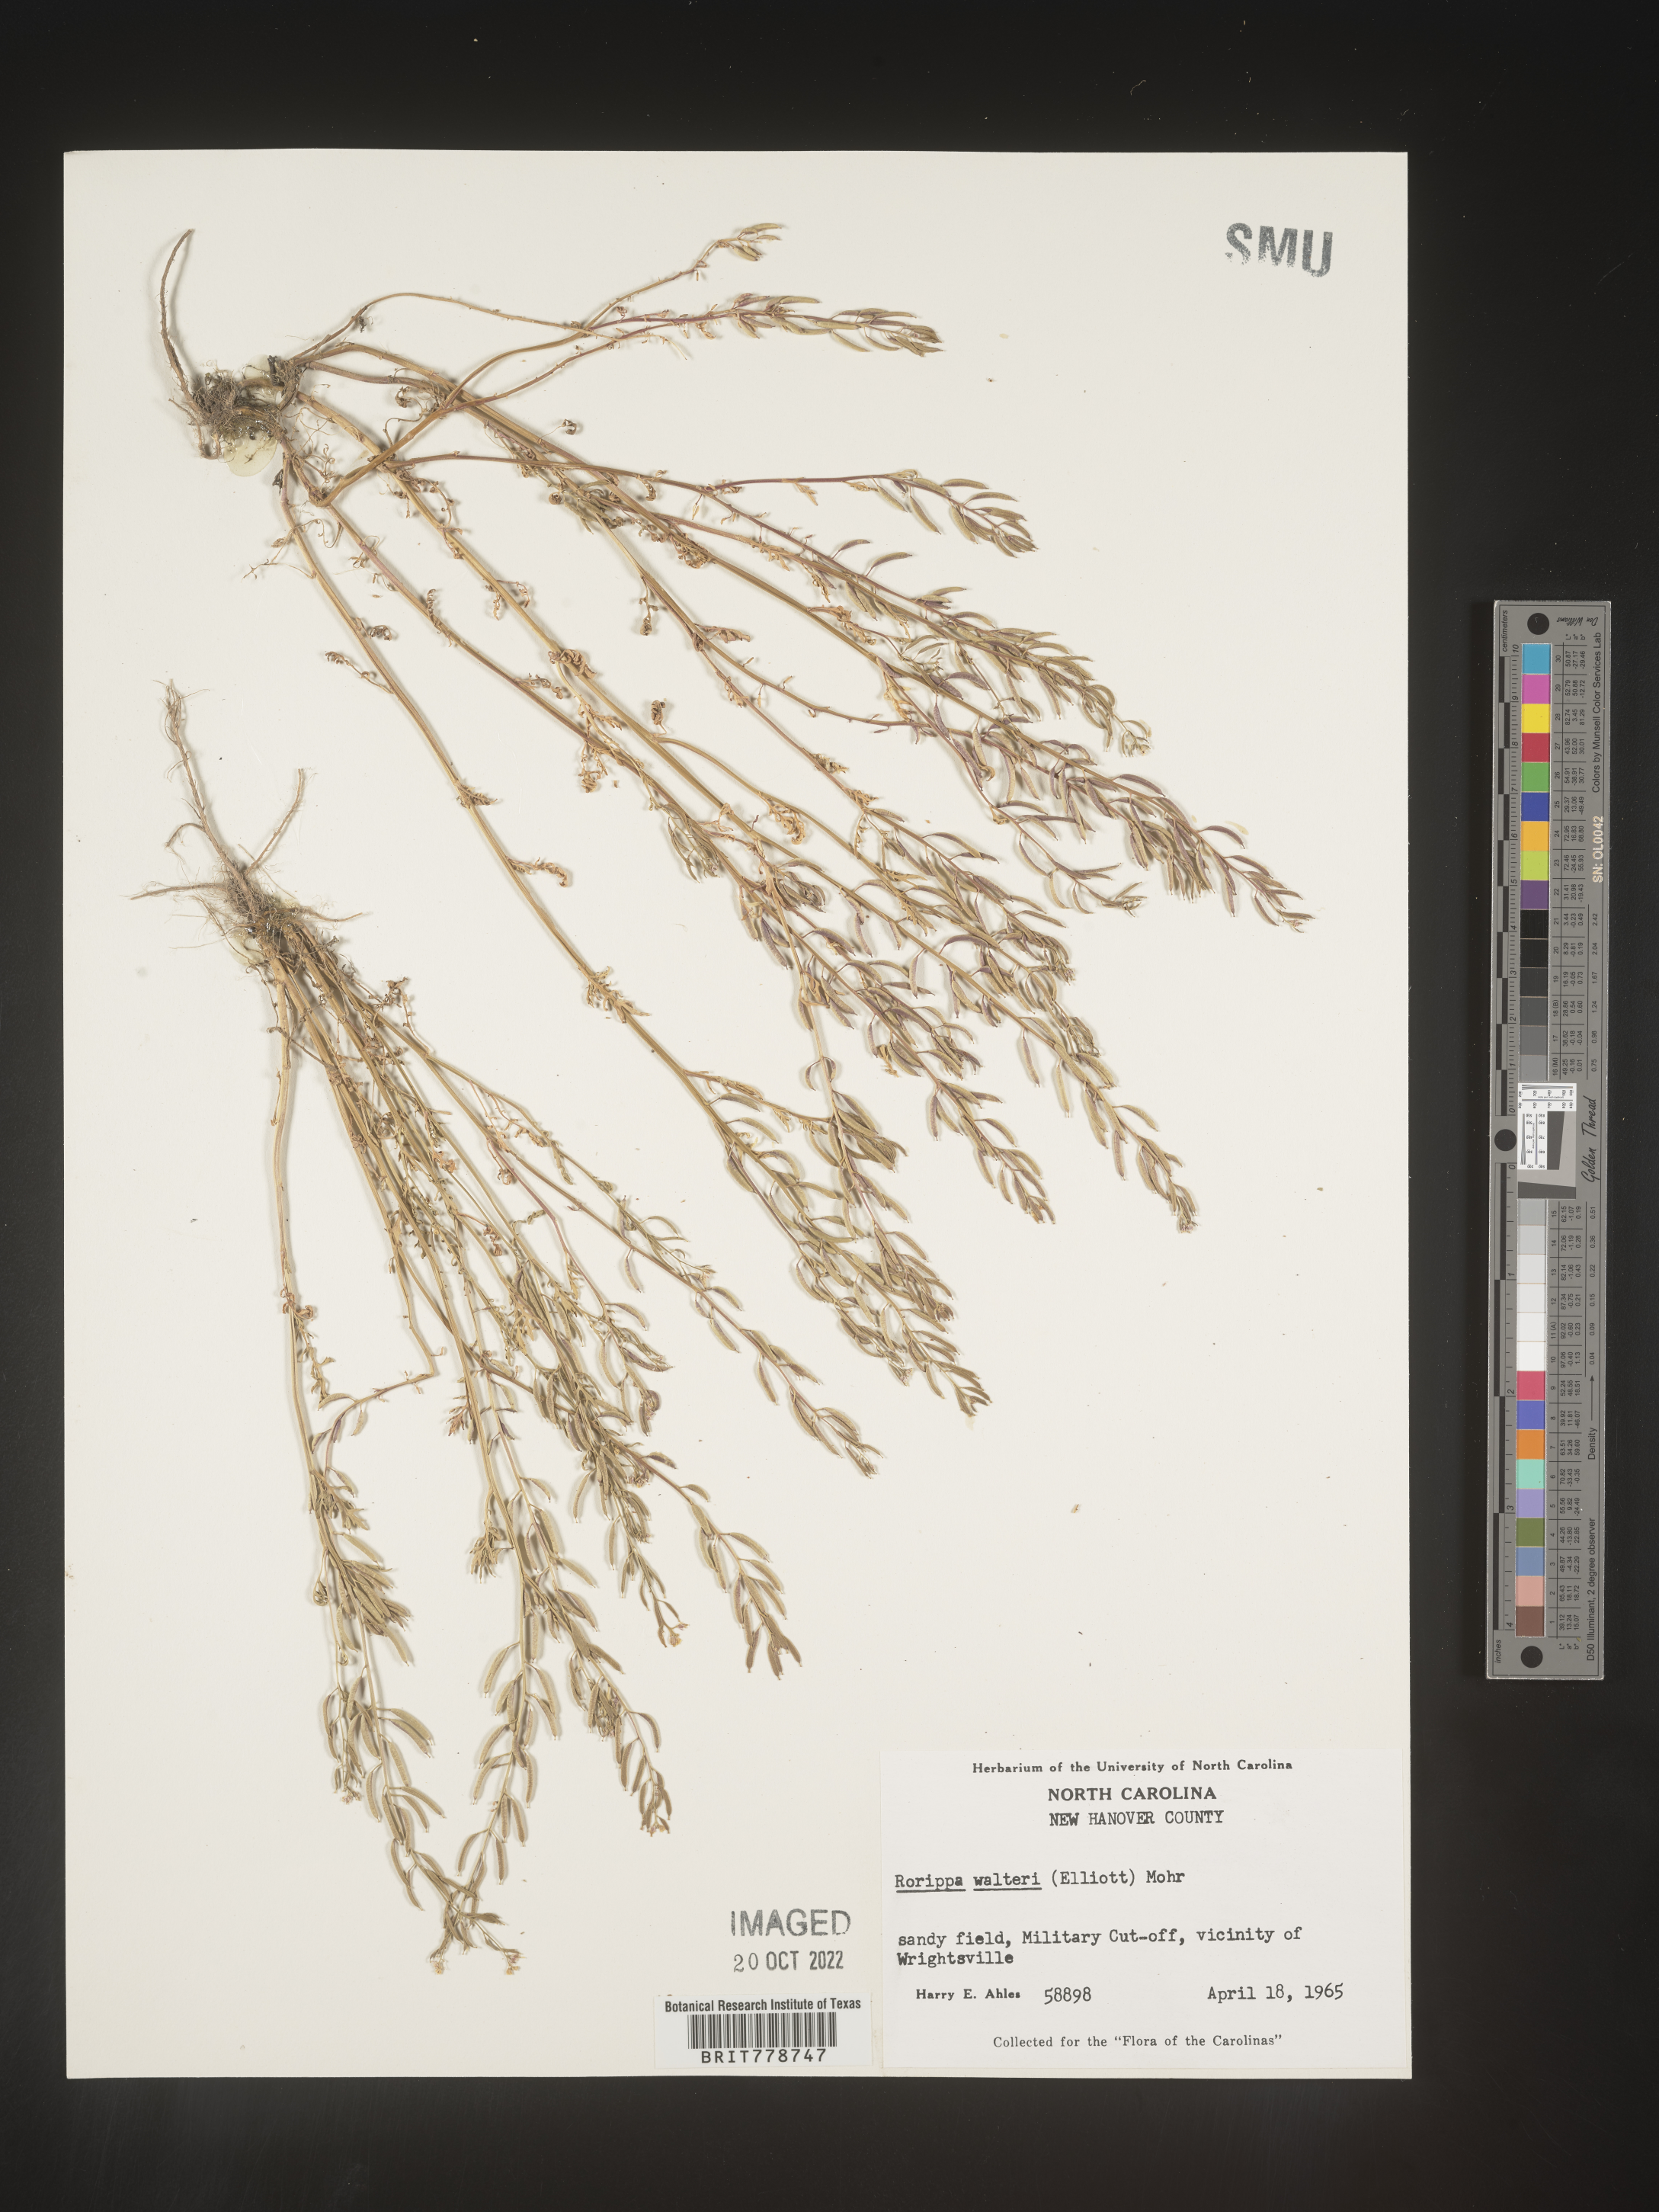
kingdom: Plantae
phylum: Tracheophyta
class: Magnoliopsida
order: Brassicales
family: Brassicaceae
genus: Rorippa
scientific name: Rorippa teres
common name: Southern marsh yellowcress
